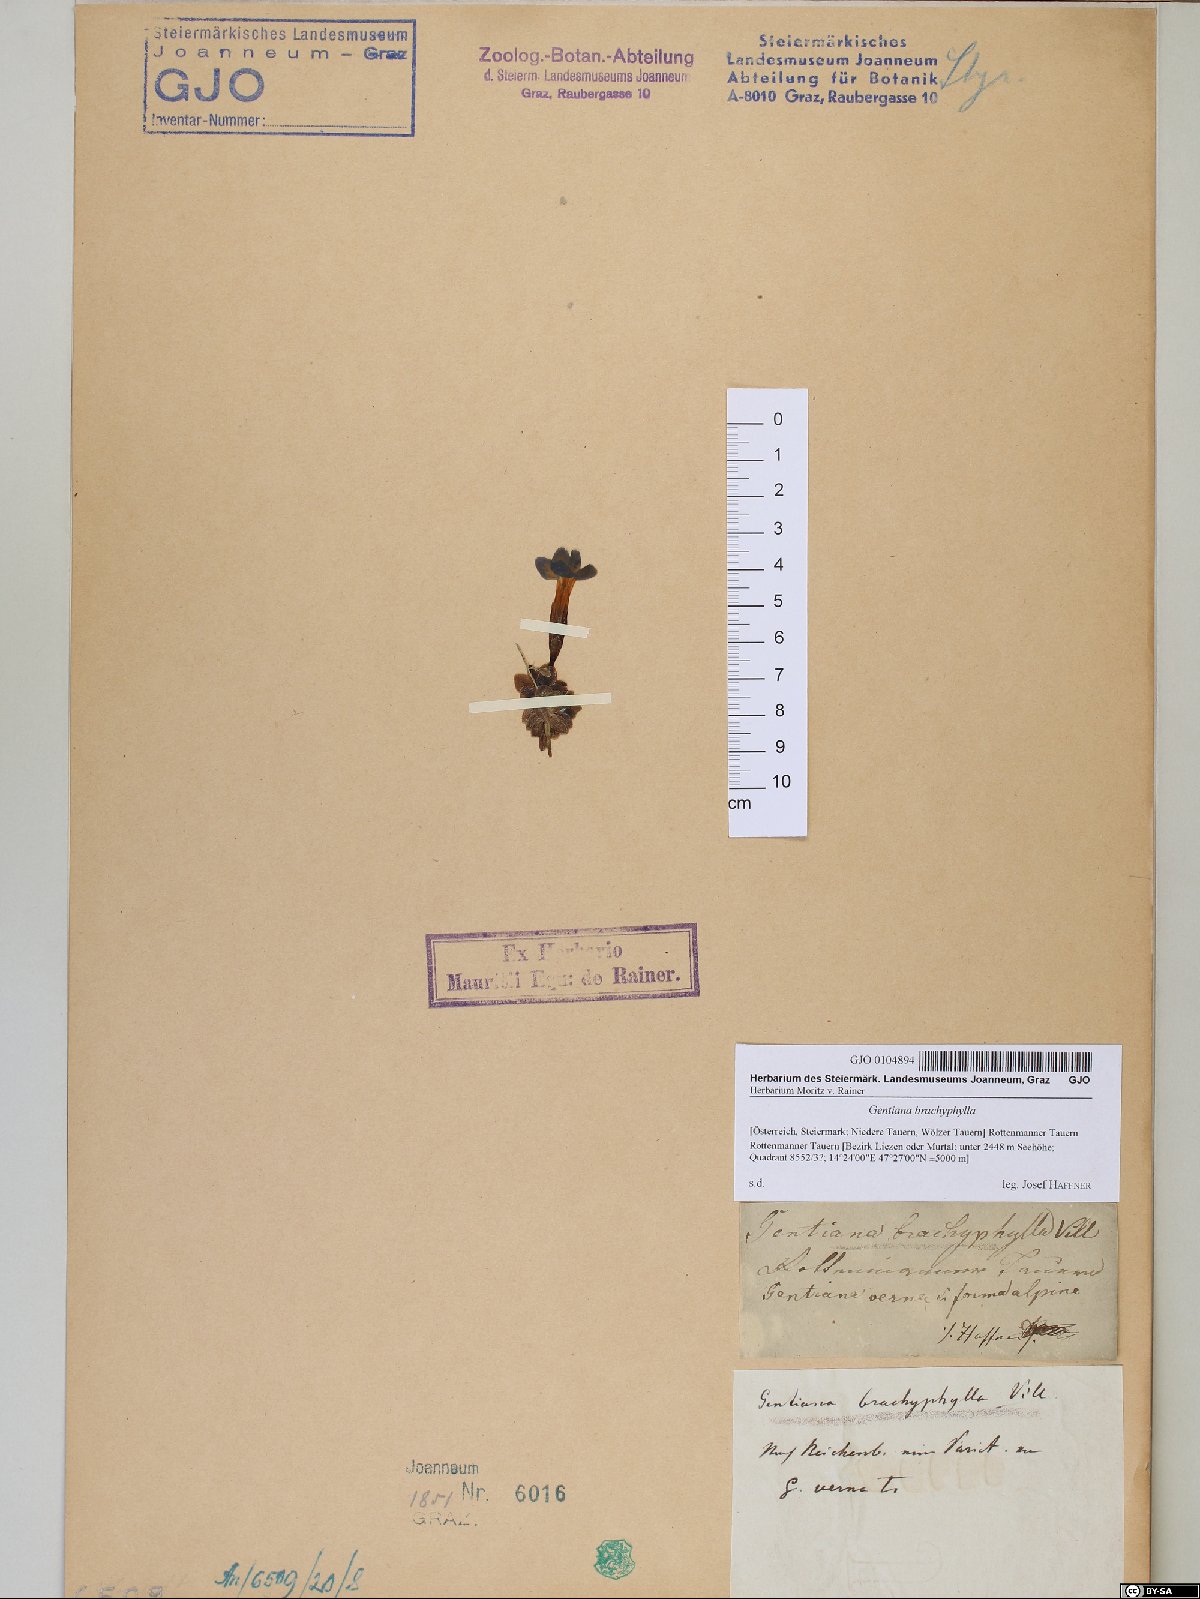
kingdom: Plantae
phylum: Tracheophyta
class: Magnoliopsida
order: Gentianales
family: Gentianaceae
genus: Gentiana
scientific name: Gentiana brachyphylla
